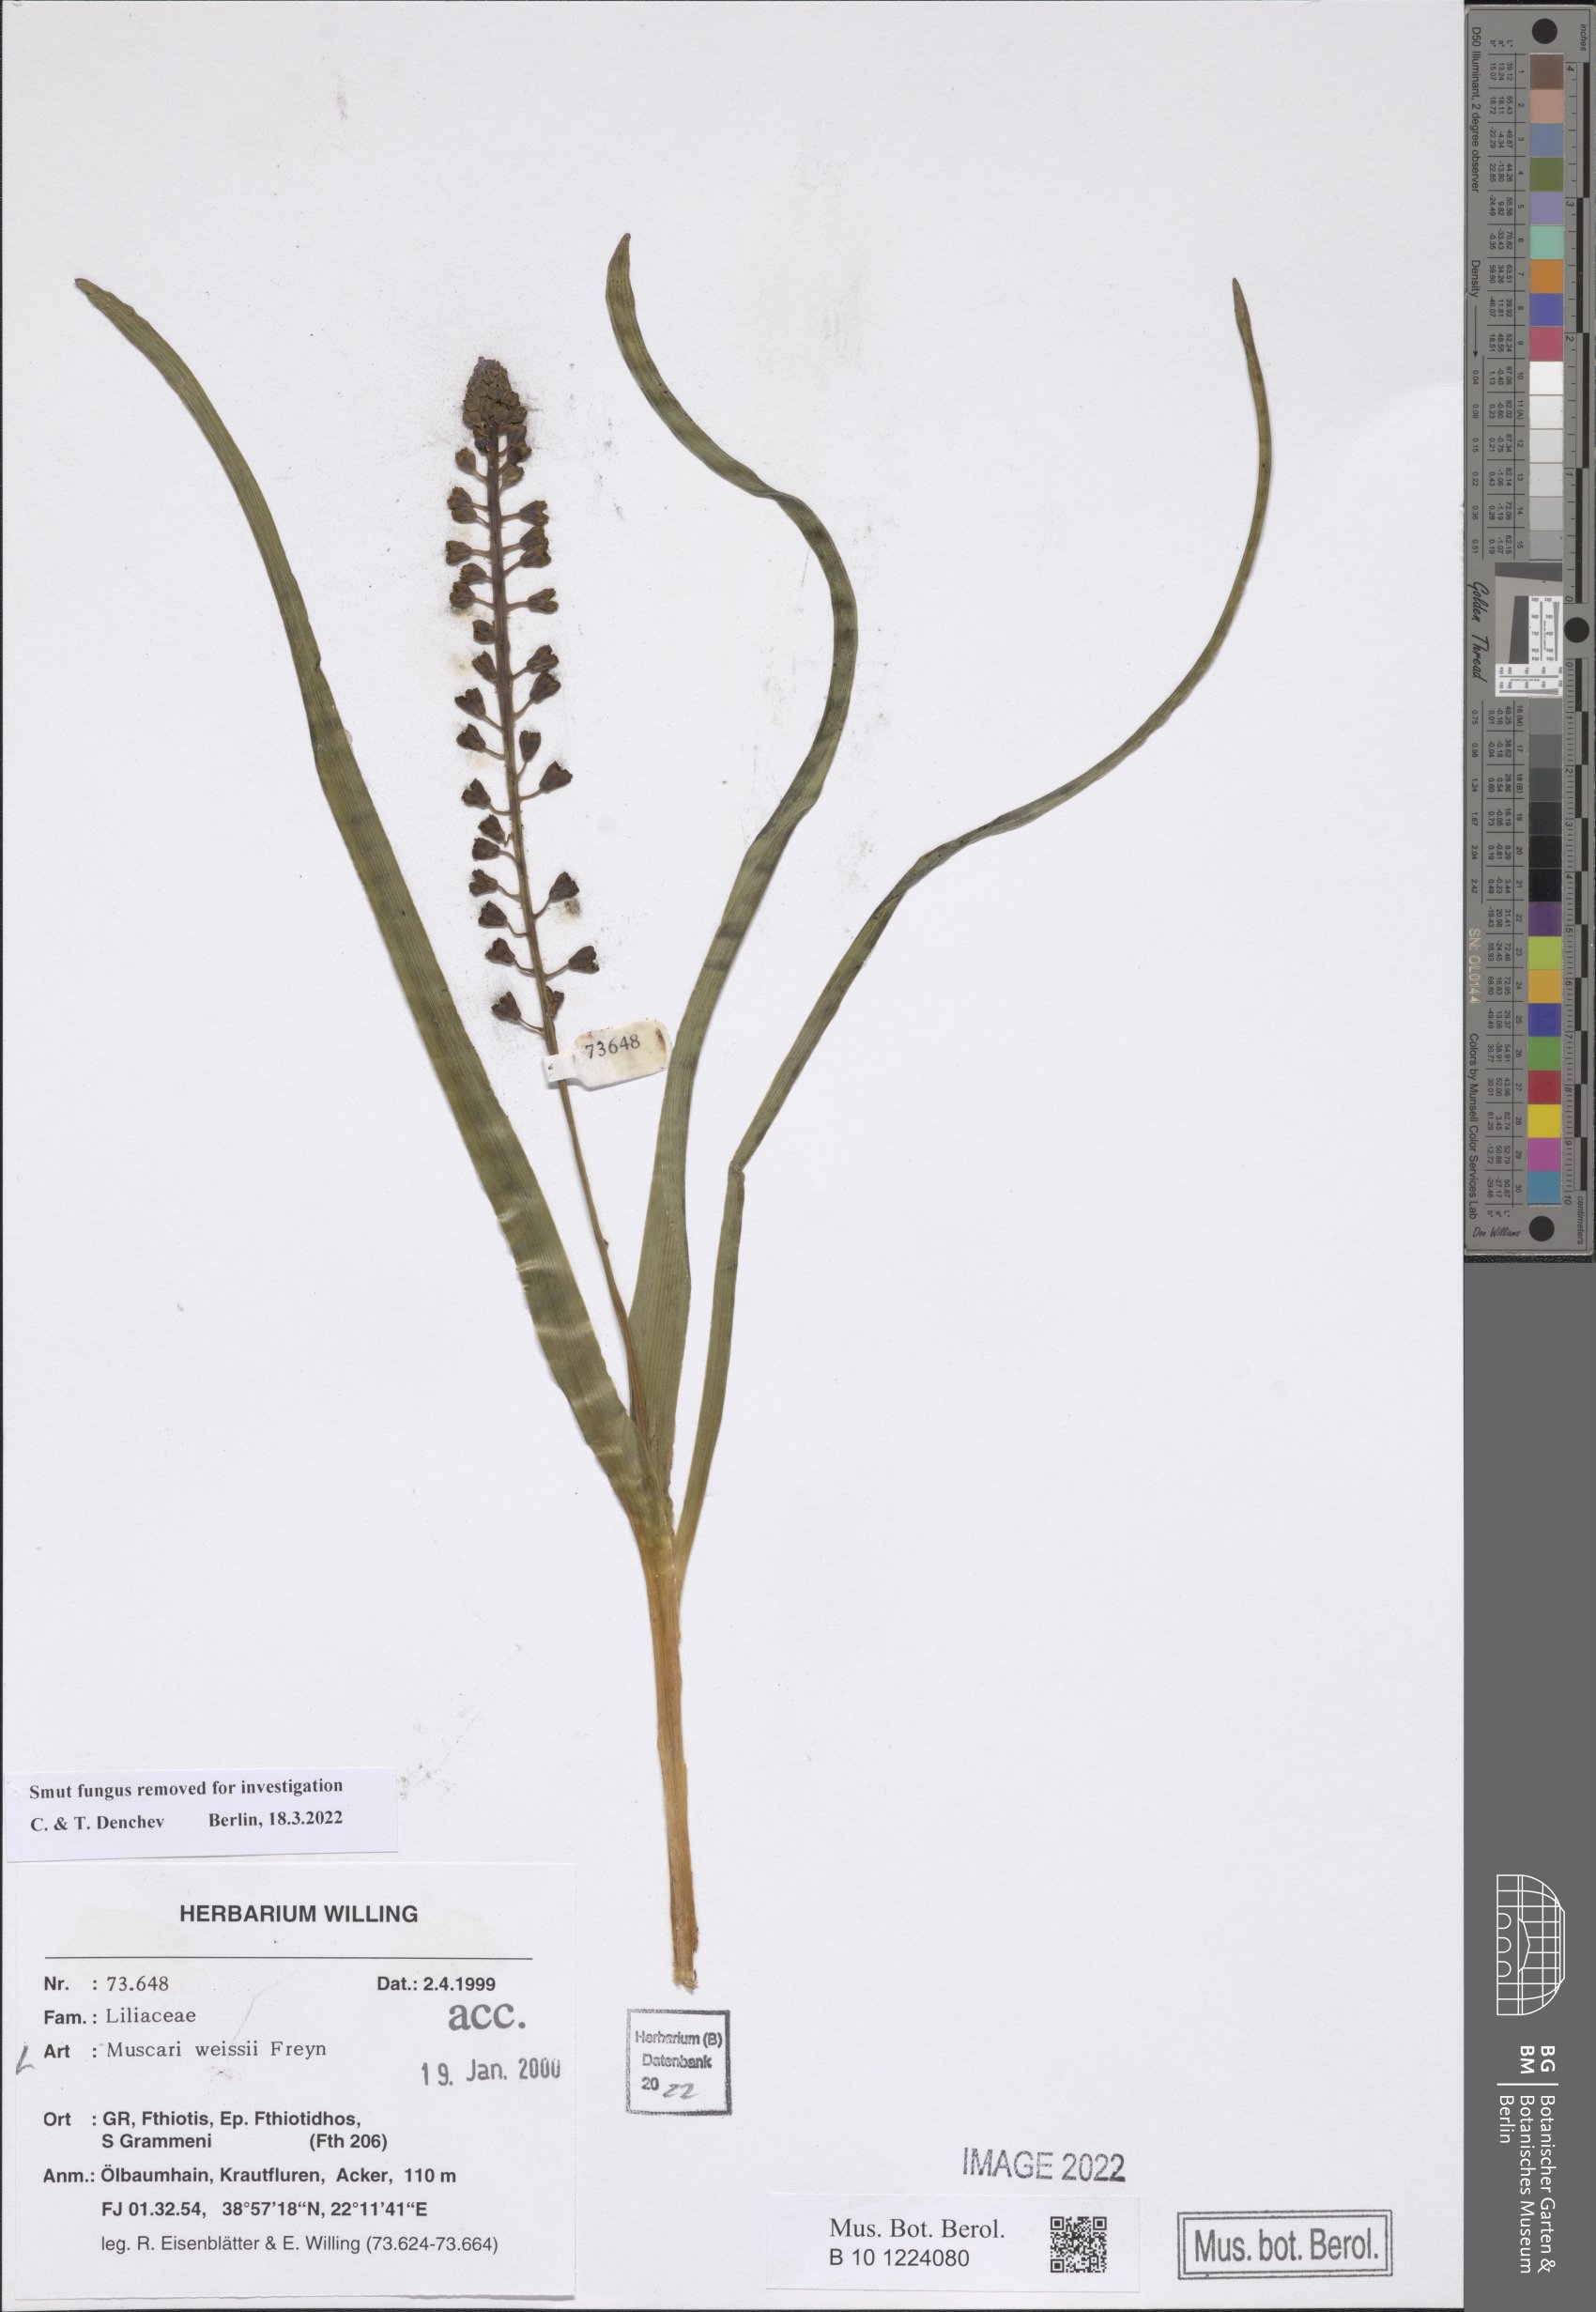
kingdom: Plantae
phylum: Tracheophyta
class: Liliopsida
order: Asparagales
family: Asparagaceae
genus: Muscari
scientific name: Muscari weissii
